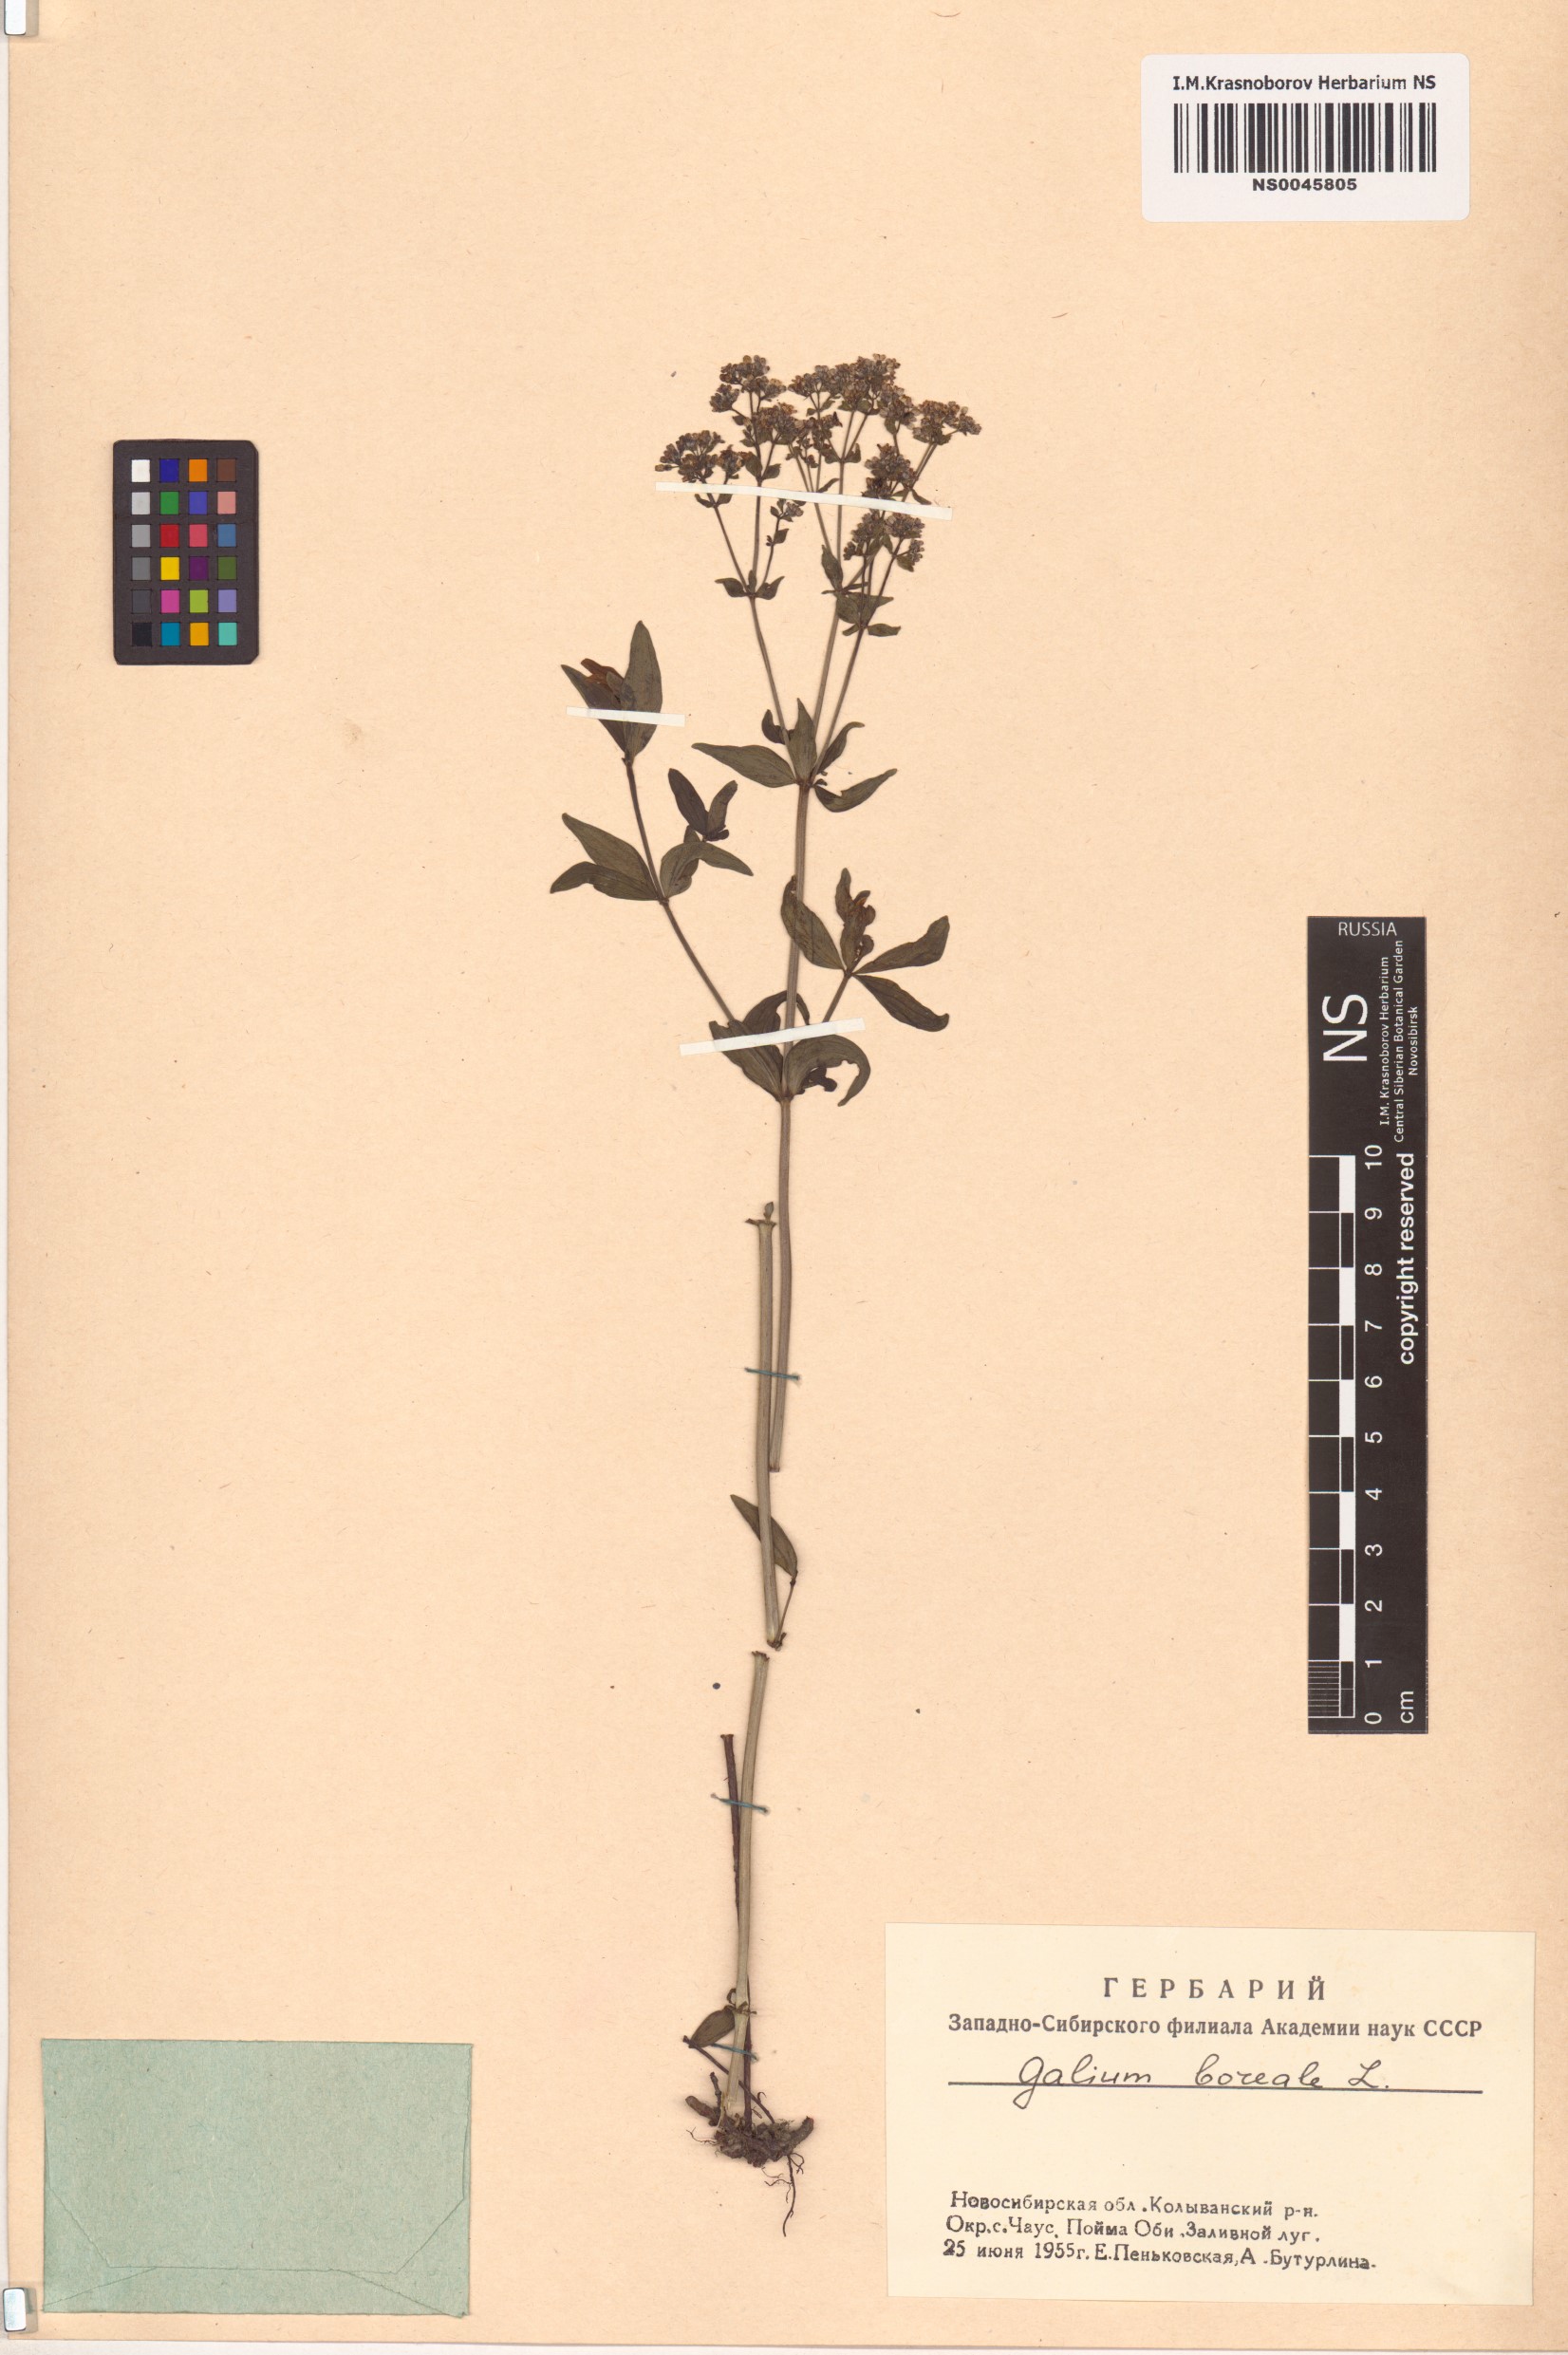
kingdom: Plantae
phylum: Tracheophyta
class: Magnoliopsida
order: Gentianales
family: Rubiaceae
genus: Galium
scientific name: Galium boreale
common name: Northern bedstraw
